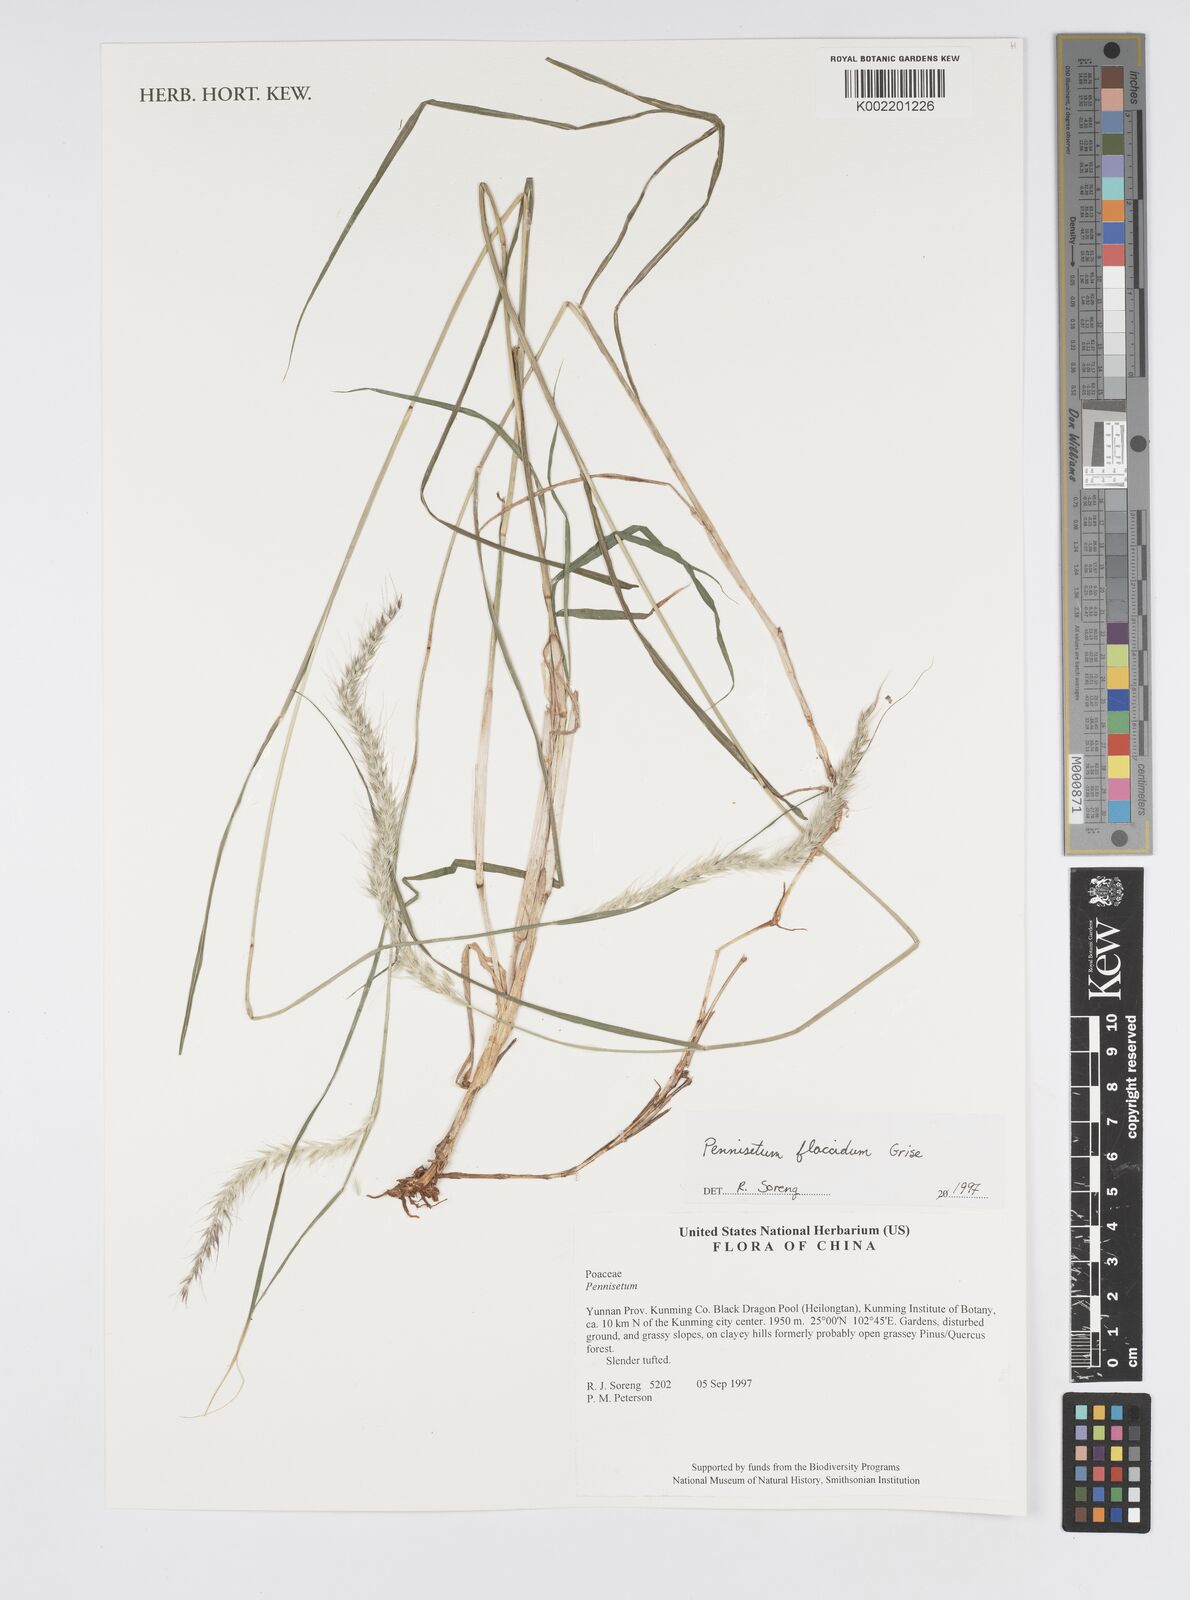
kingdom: Plantae
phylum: Tracheophyta
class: Liliopsida
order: Poales
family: Poaceae
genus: Cenchrus
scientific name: Cenchrus flaccidus
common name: Flaccid grass
